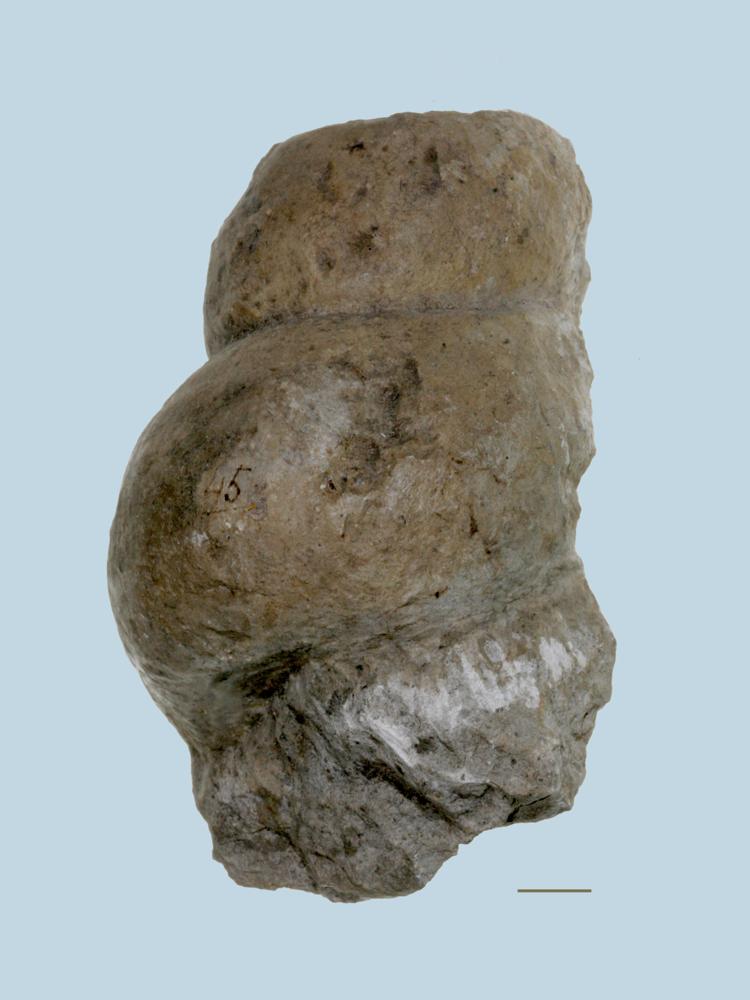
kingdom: Animalia
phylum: Mollusca
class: Gastropoda
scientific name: Gastropoda
